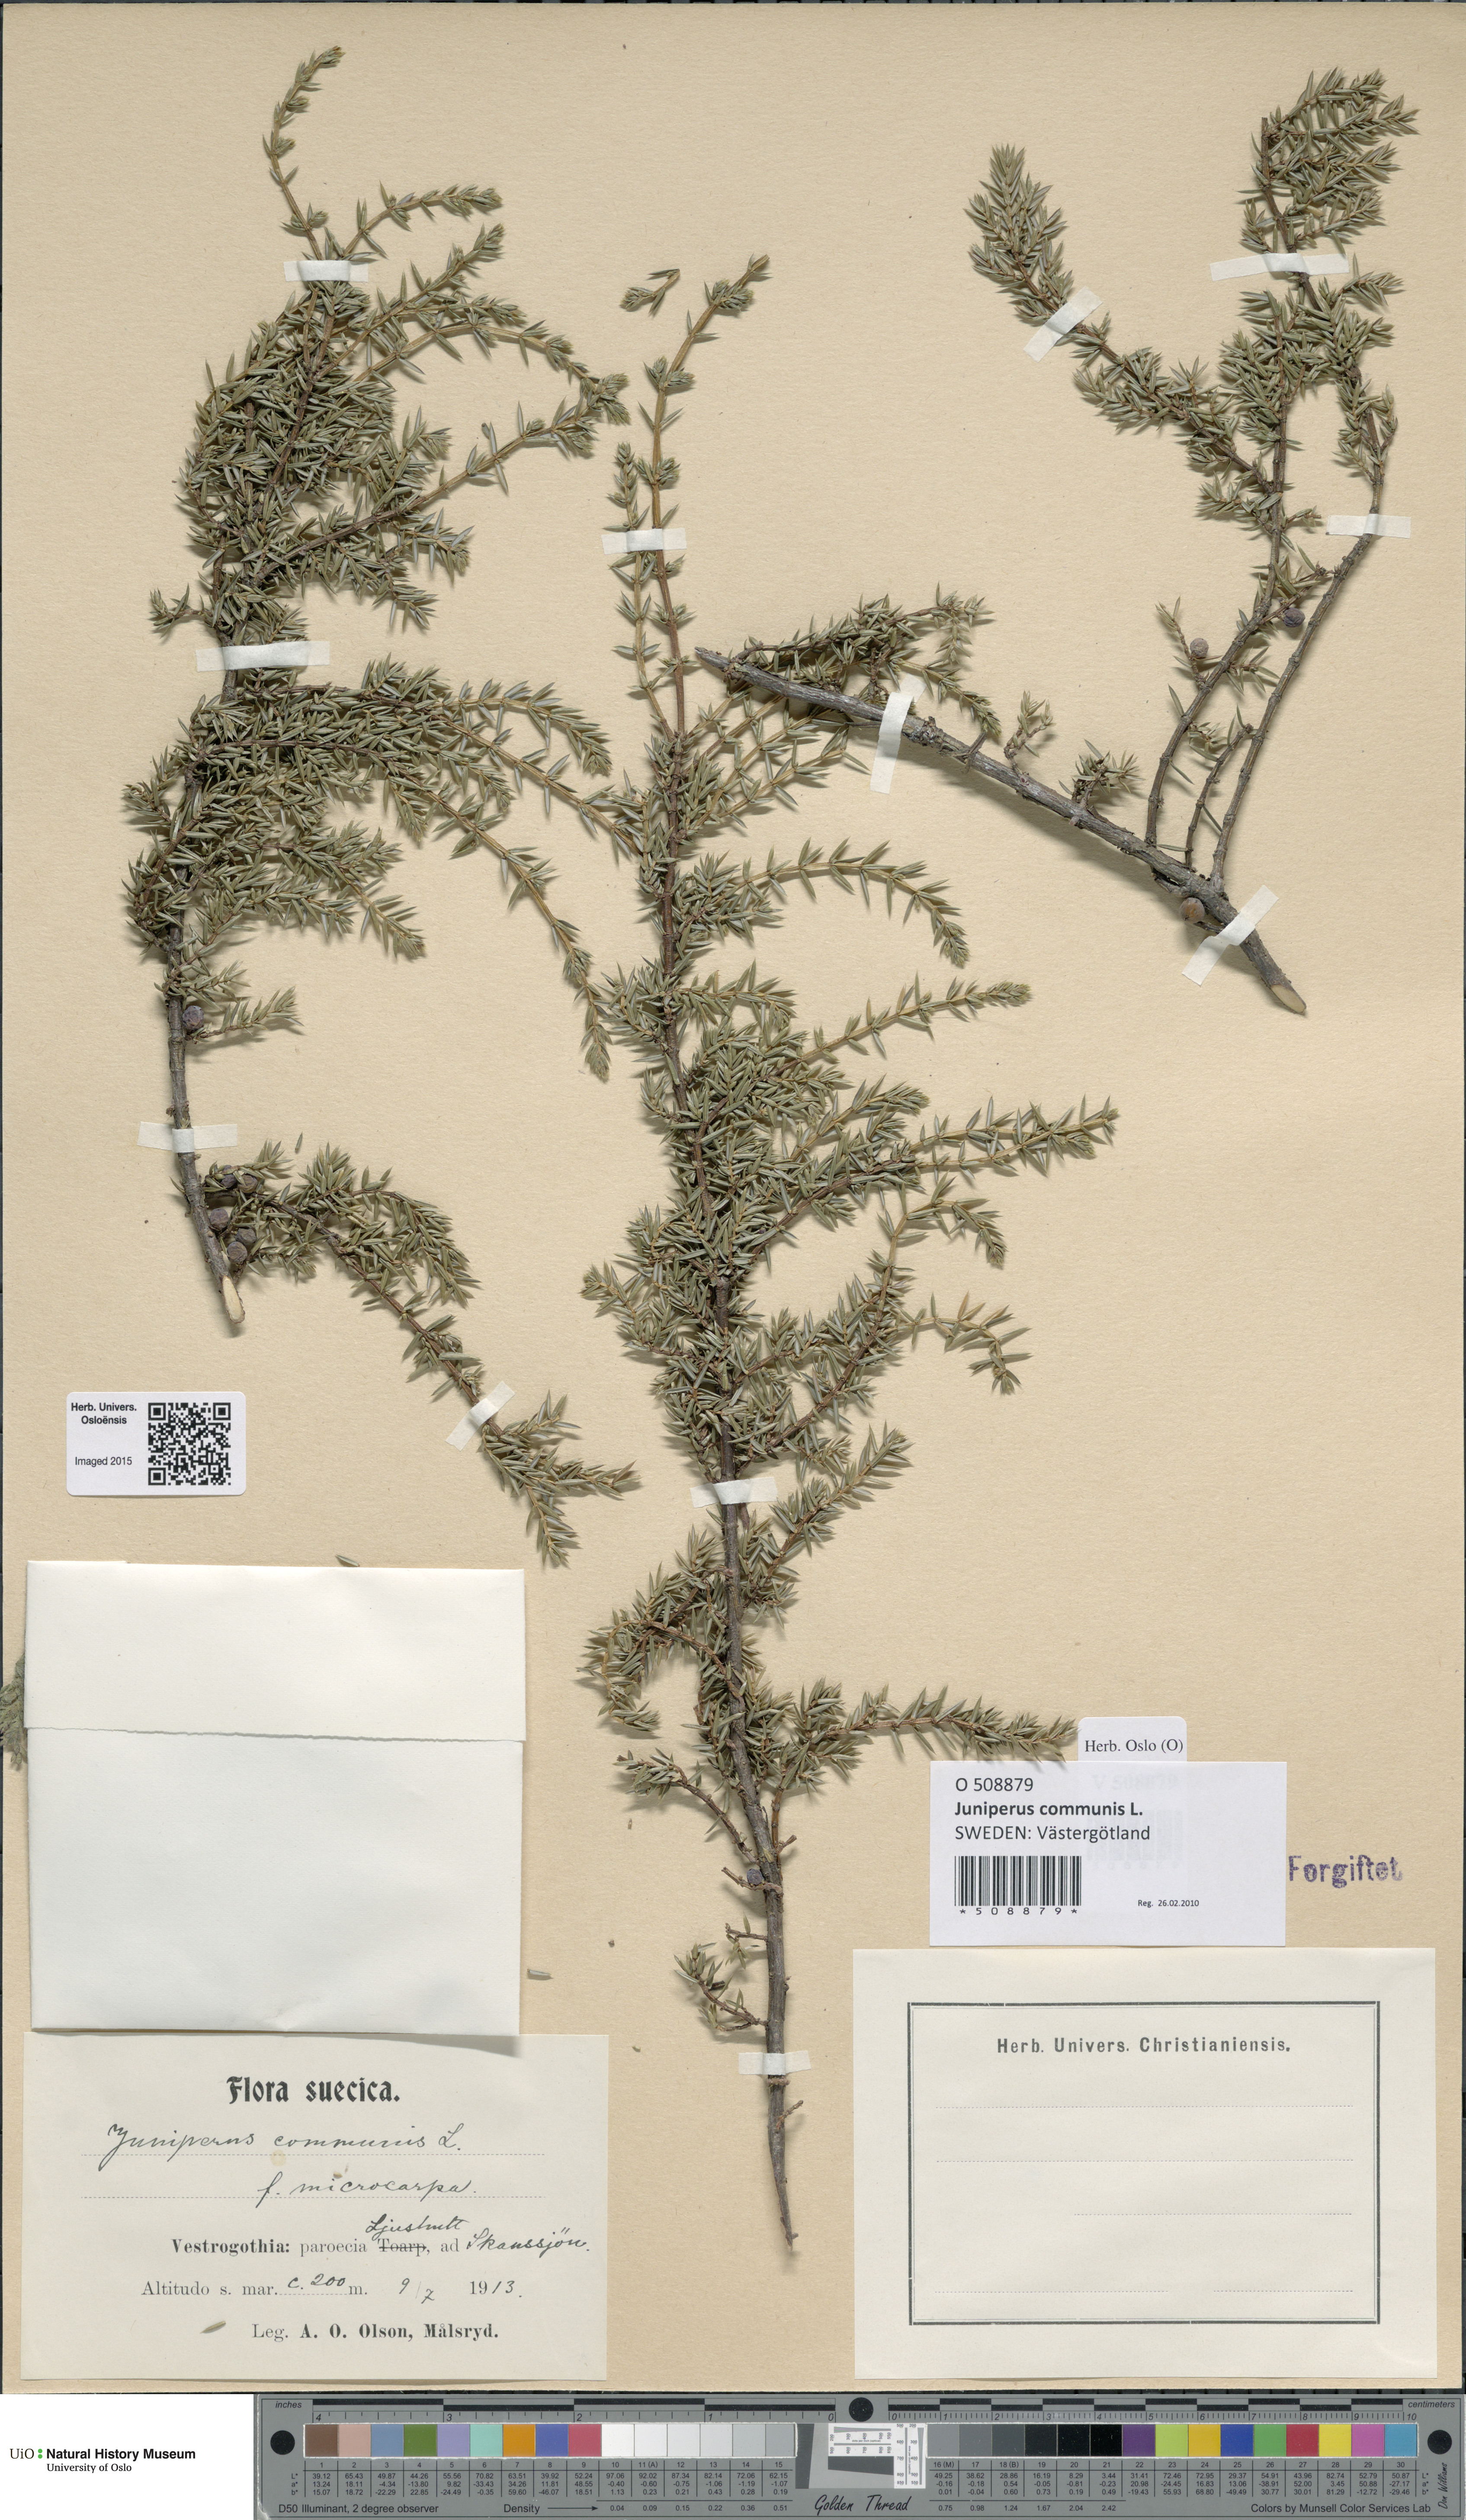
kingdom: Plantae
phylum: Tracheophyta
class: Pinopsida
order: Pinales
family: Cupressaceae
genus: Juniperus
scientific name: Juniperus communis
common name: Common juniper
